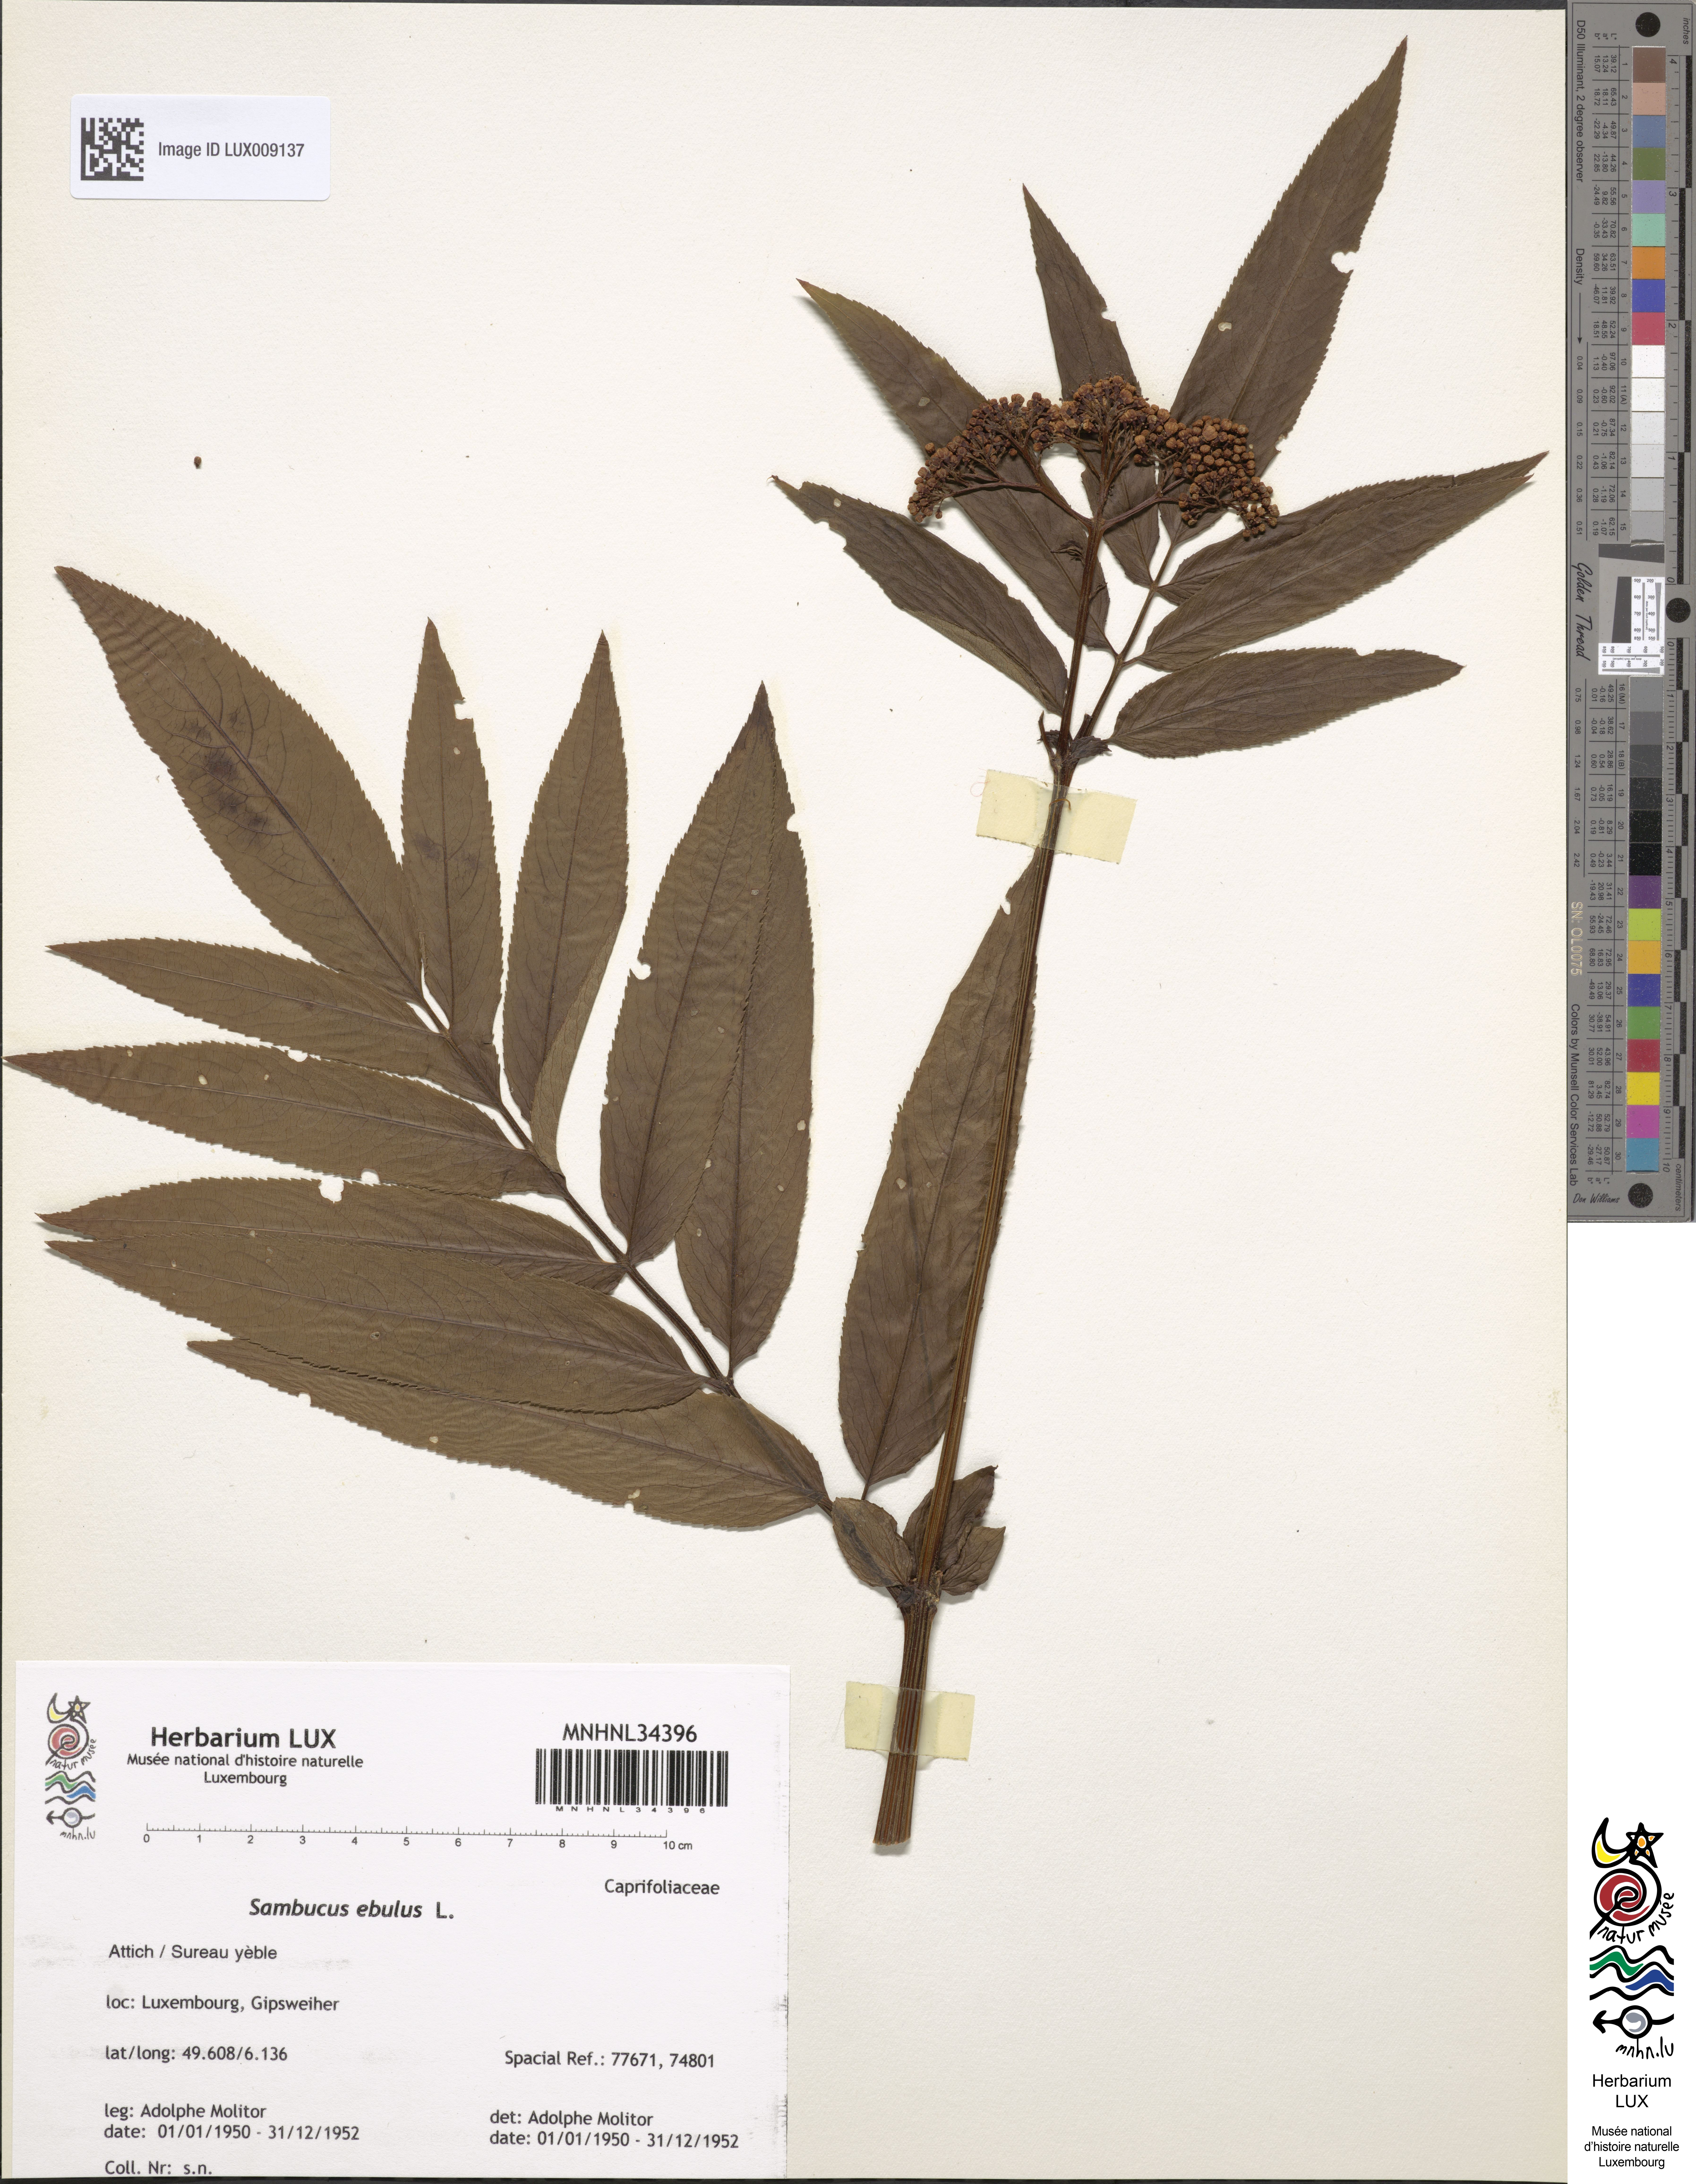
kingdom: Plantae
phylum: Tracheophyta
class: Magnoliopsida
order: Dipsacales
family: Viburnaceae
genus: Sambucus
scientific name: Sambucus ebulus
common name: Dwarf elder
